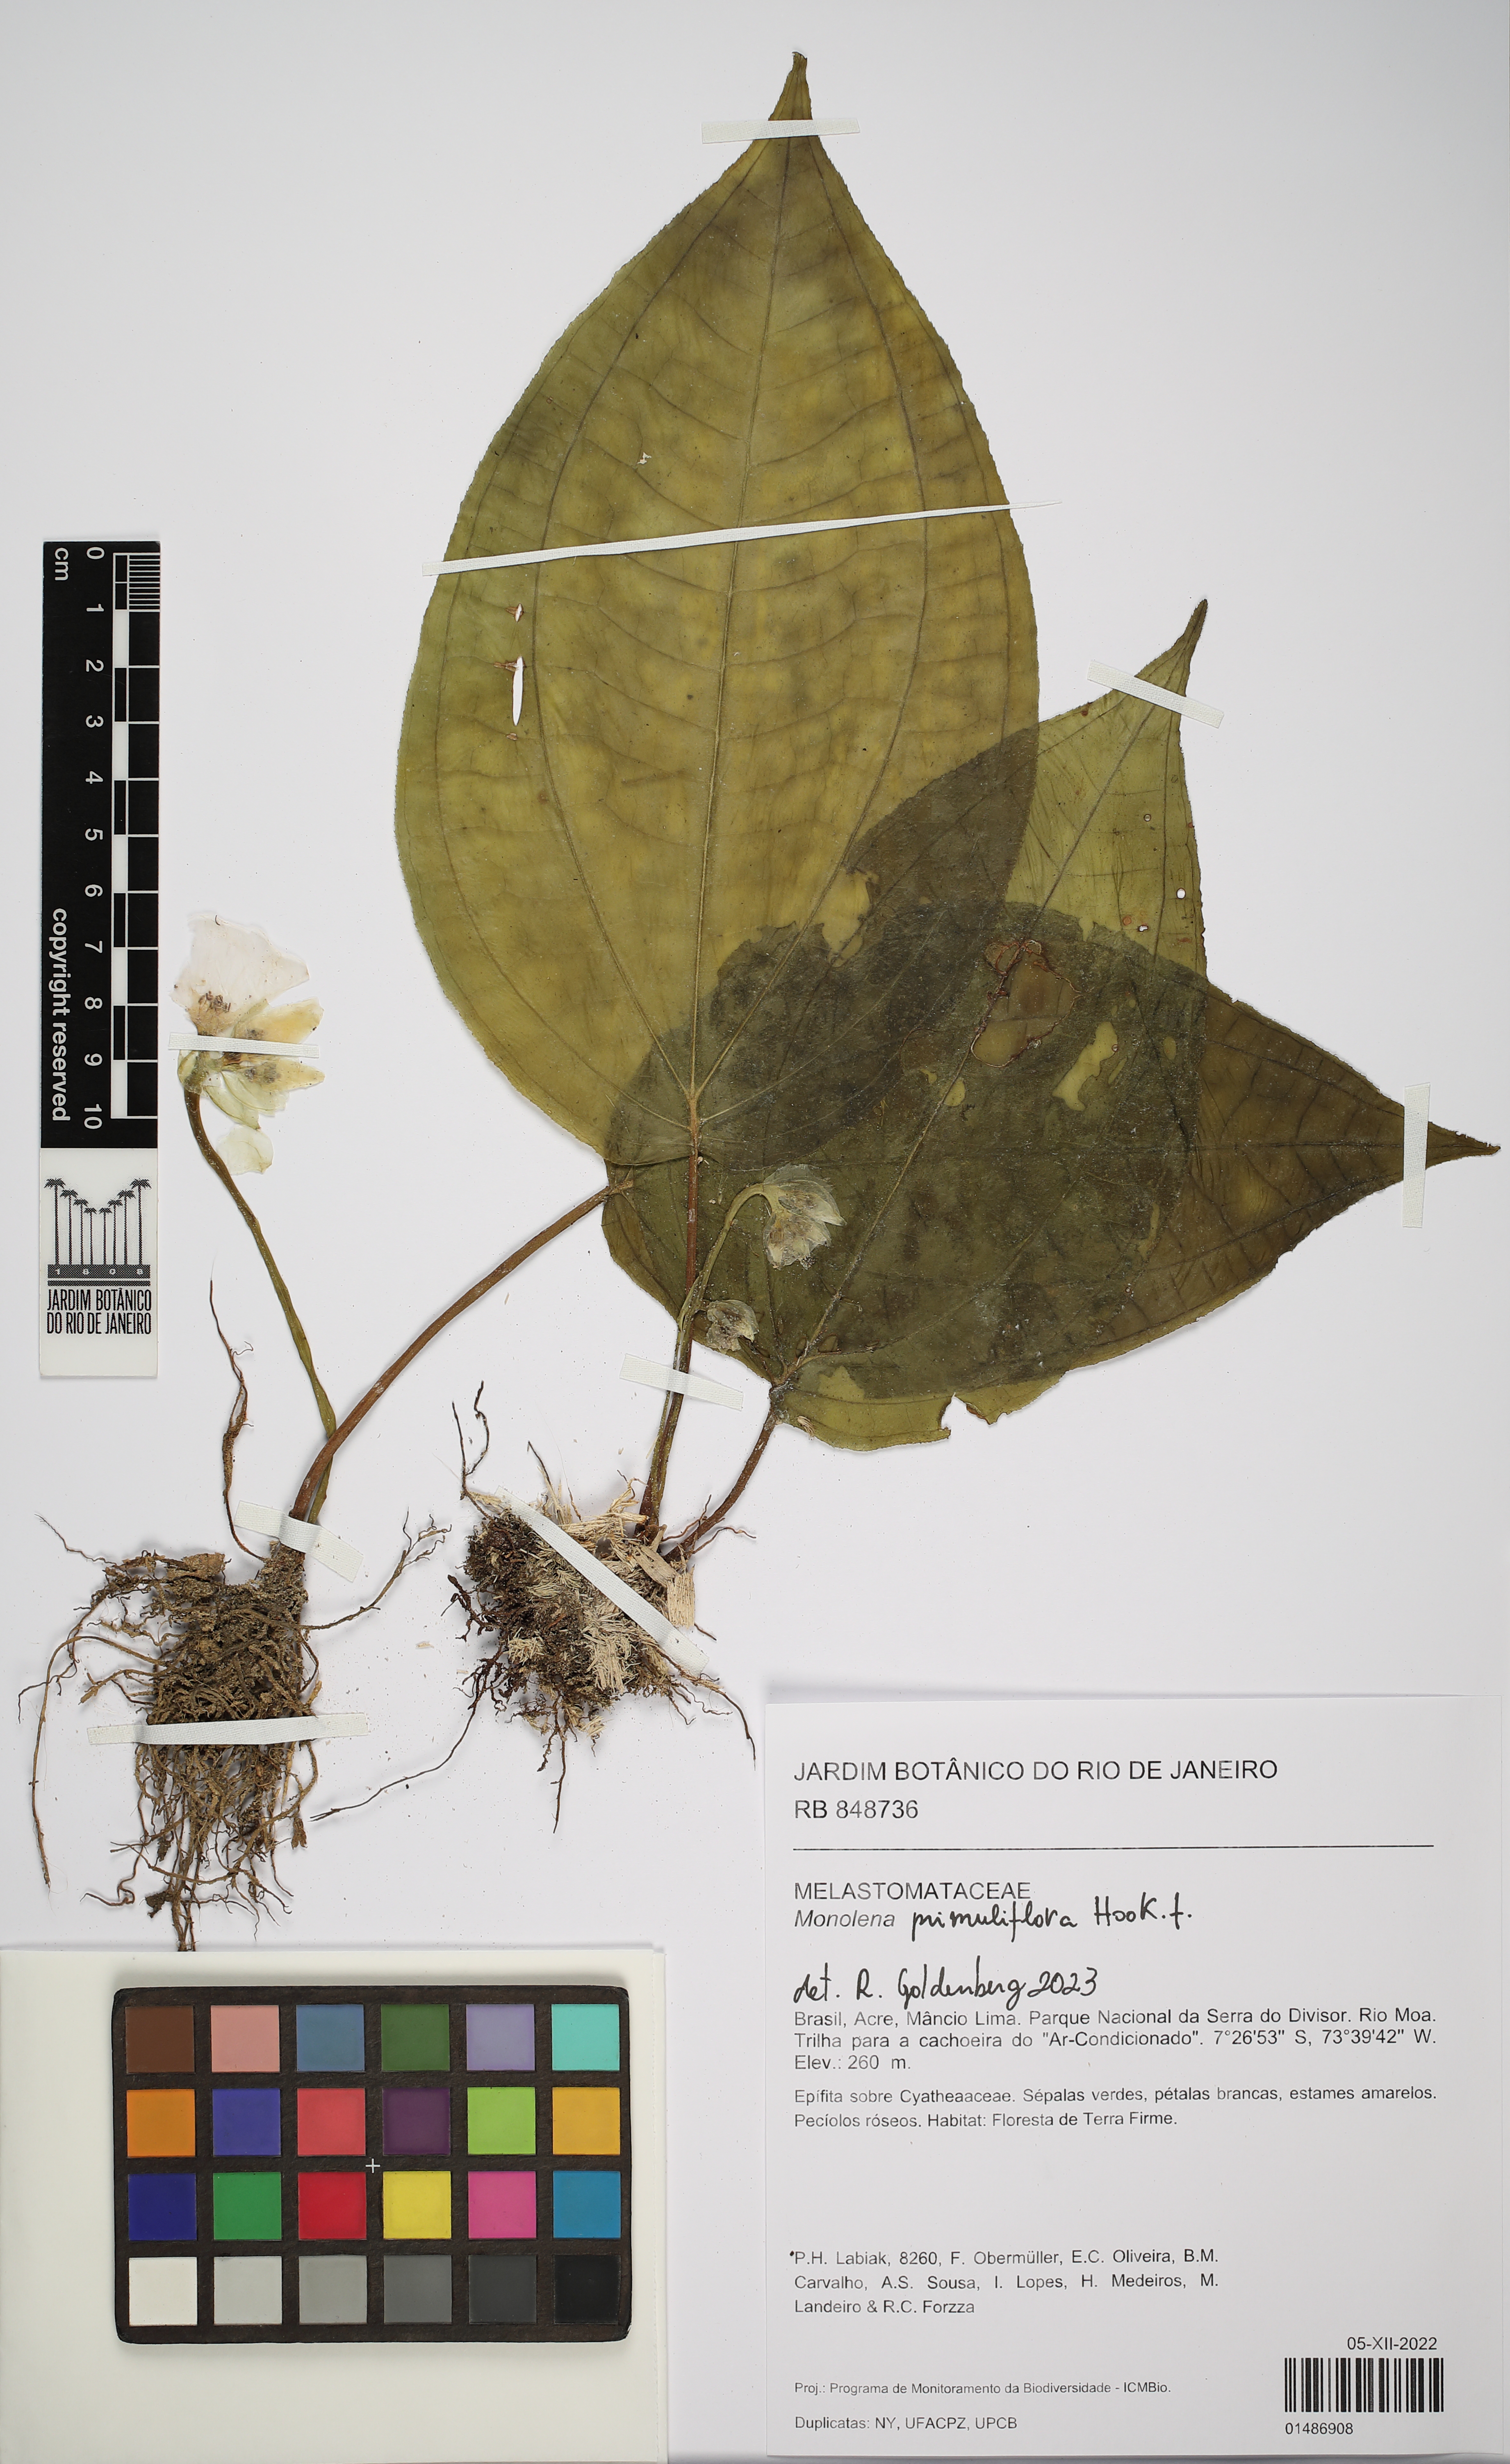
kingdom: Plantae
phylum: Tracheophyta
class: Magnoliopsida
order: Myrtales
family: Melastomataceae
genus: Monolena
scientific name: Monolena
